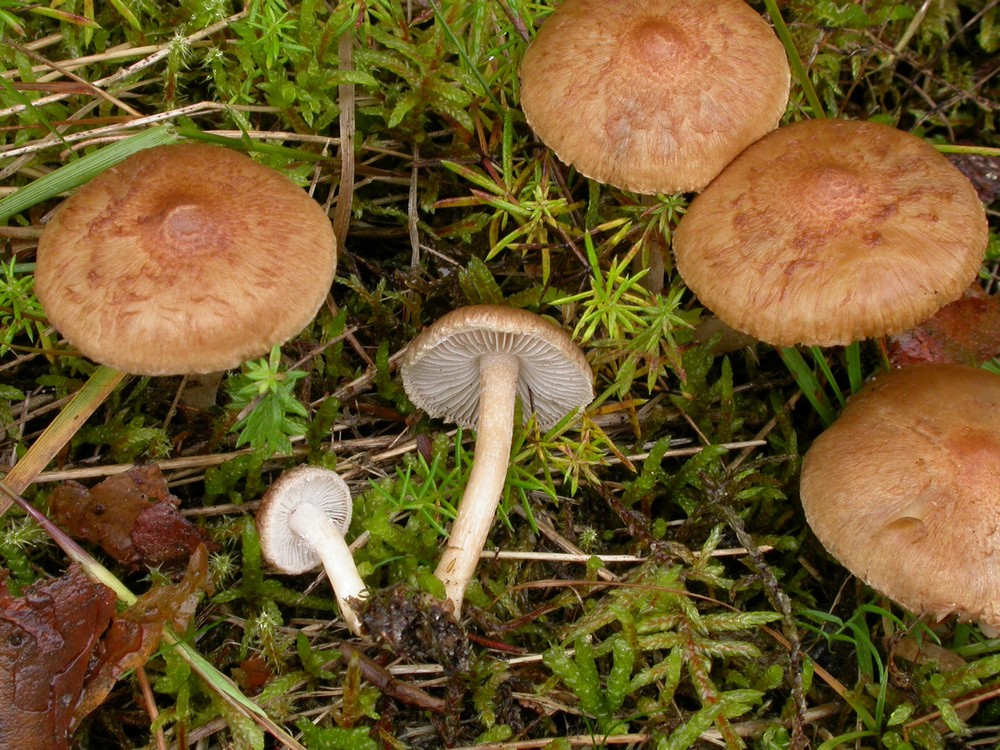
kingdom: Fungi
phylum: Basidiomycota
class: Agaricomycetes
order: Agaricales
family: Inocybaceae
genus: Inocybe
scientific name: Inocybe
